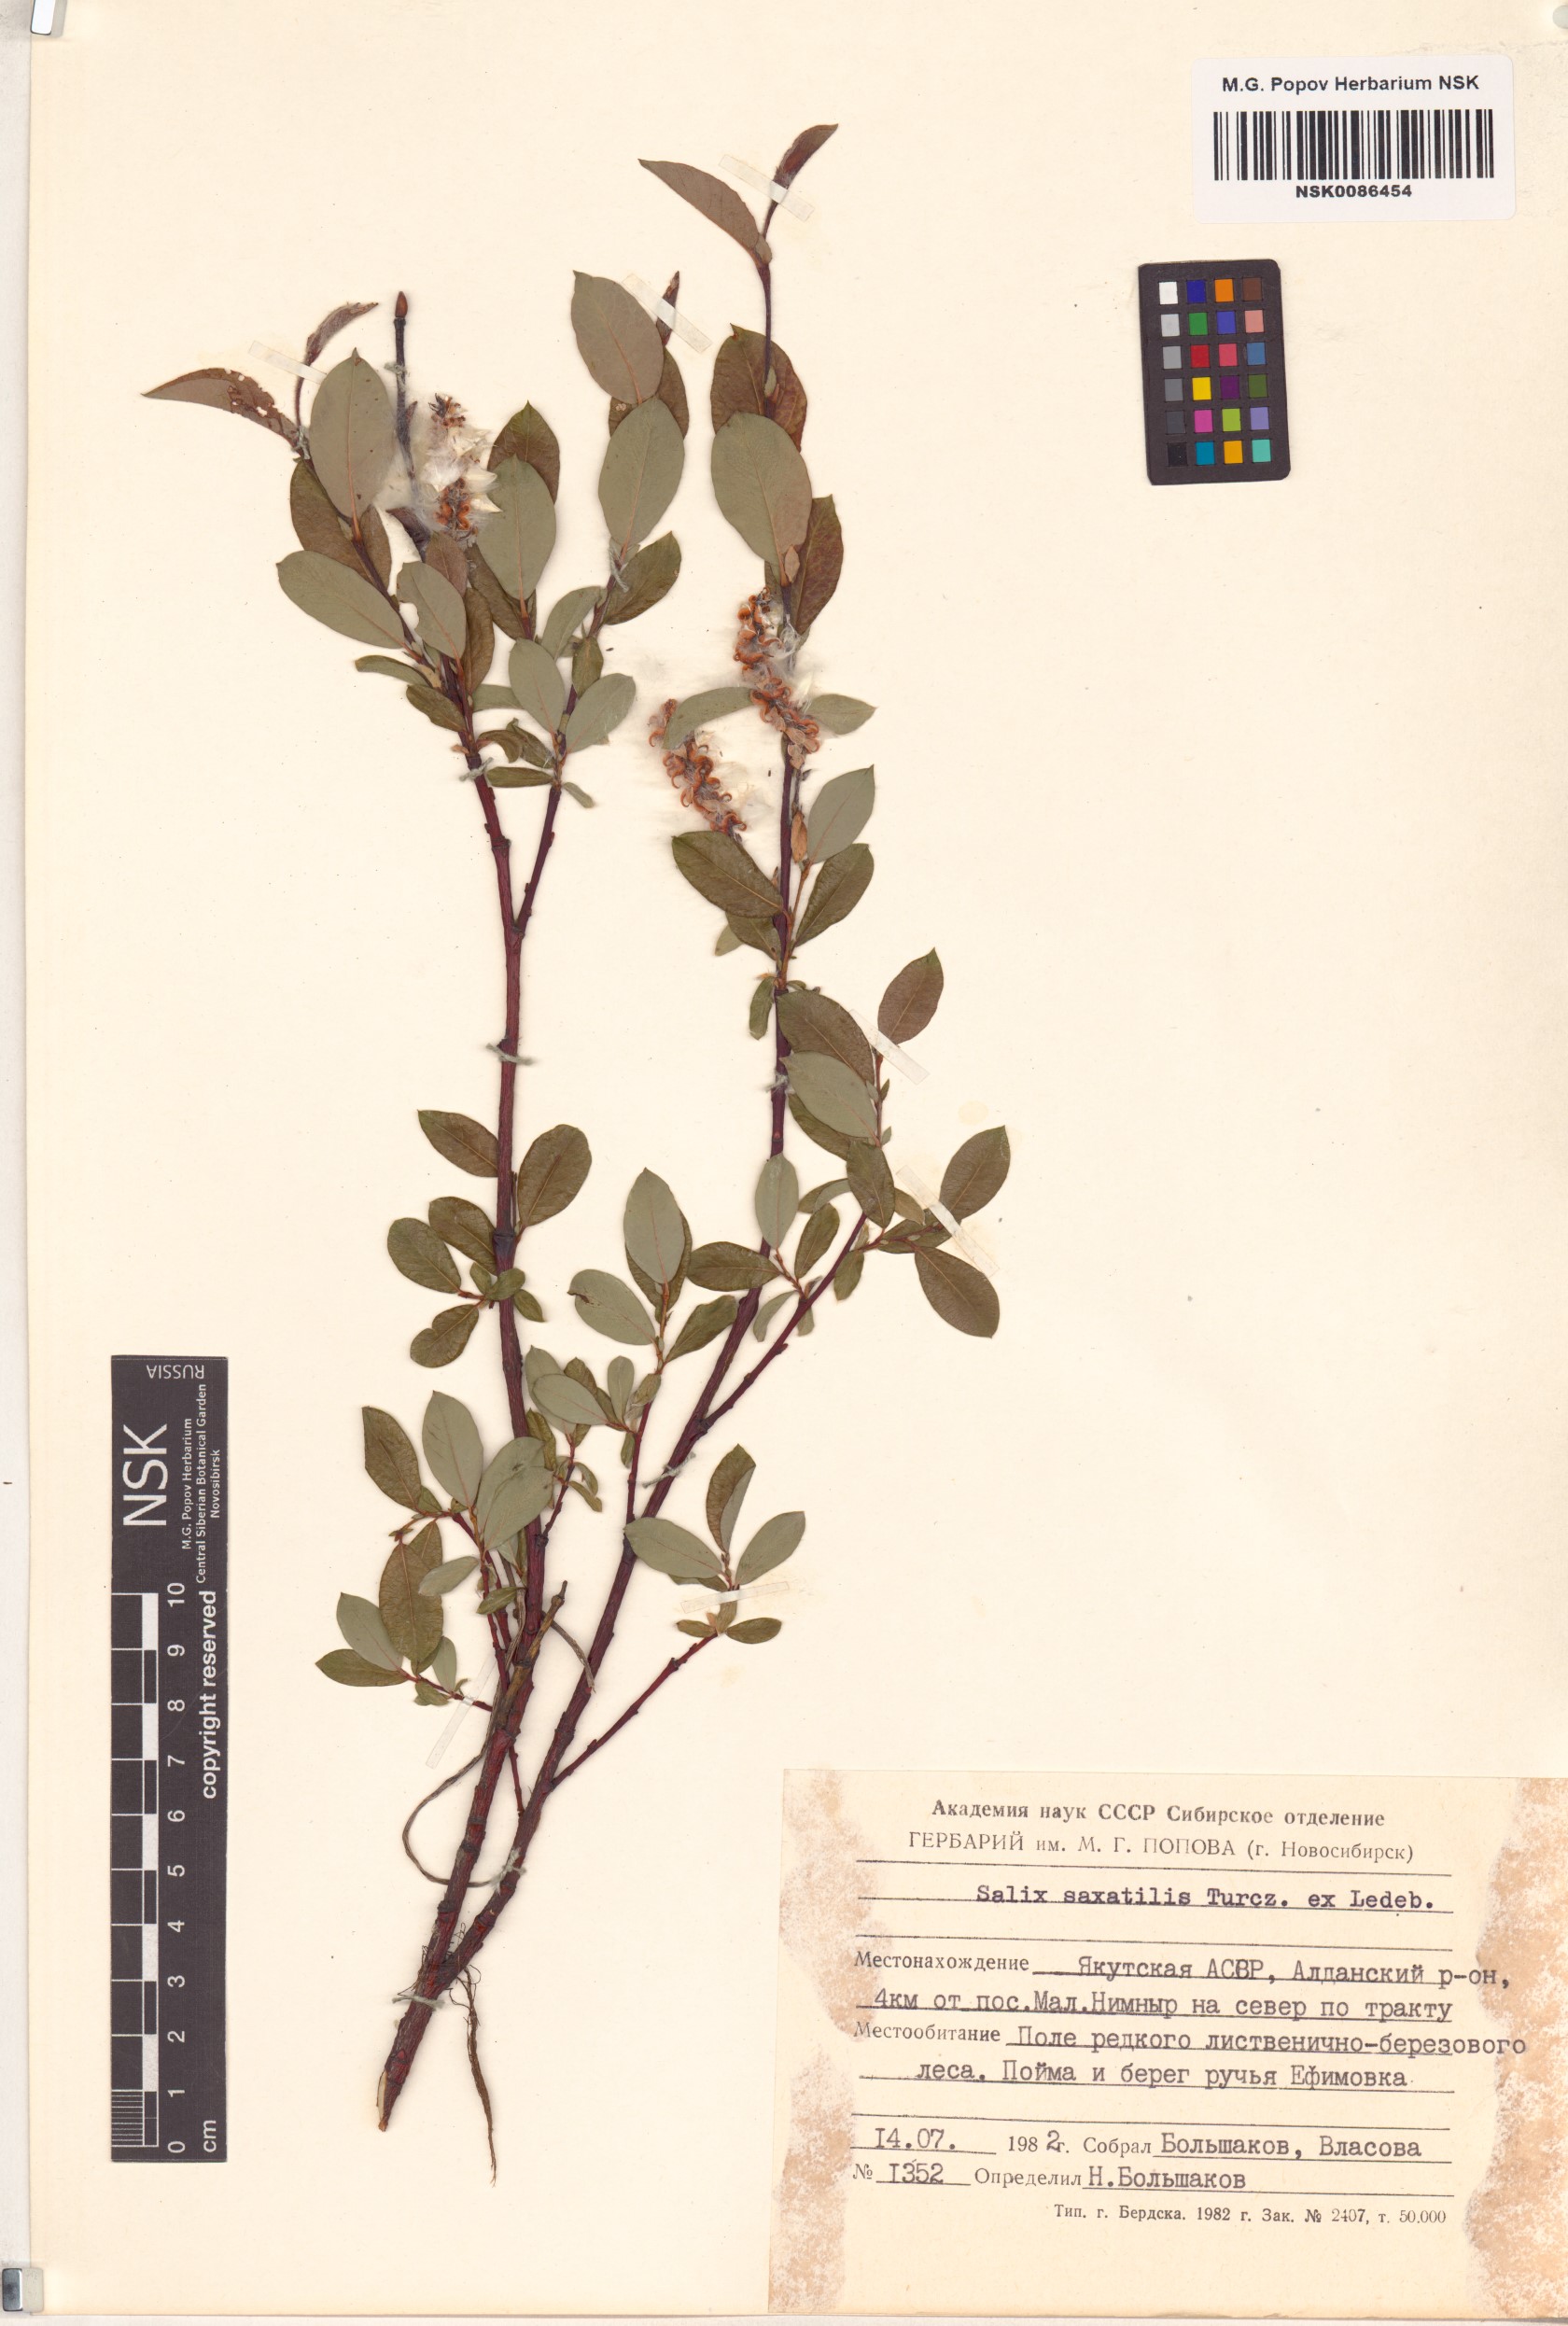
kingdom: Plantae
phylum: Tracheophyta
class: Magnoliopsida
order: Malpighiales
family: Salicaceae
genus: Salix
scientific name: Salix saxatilis
